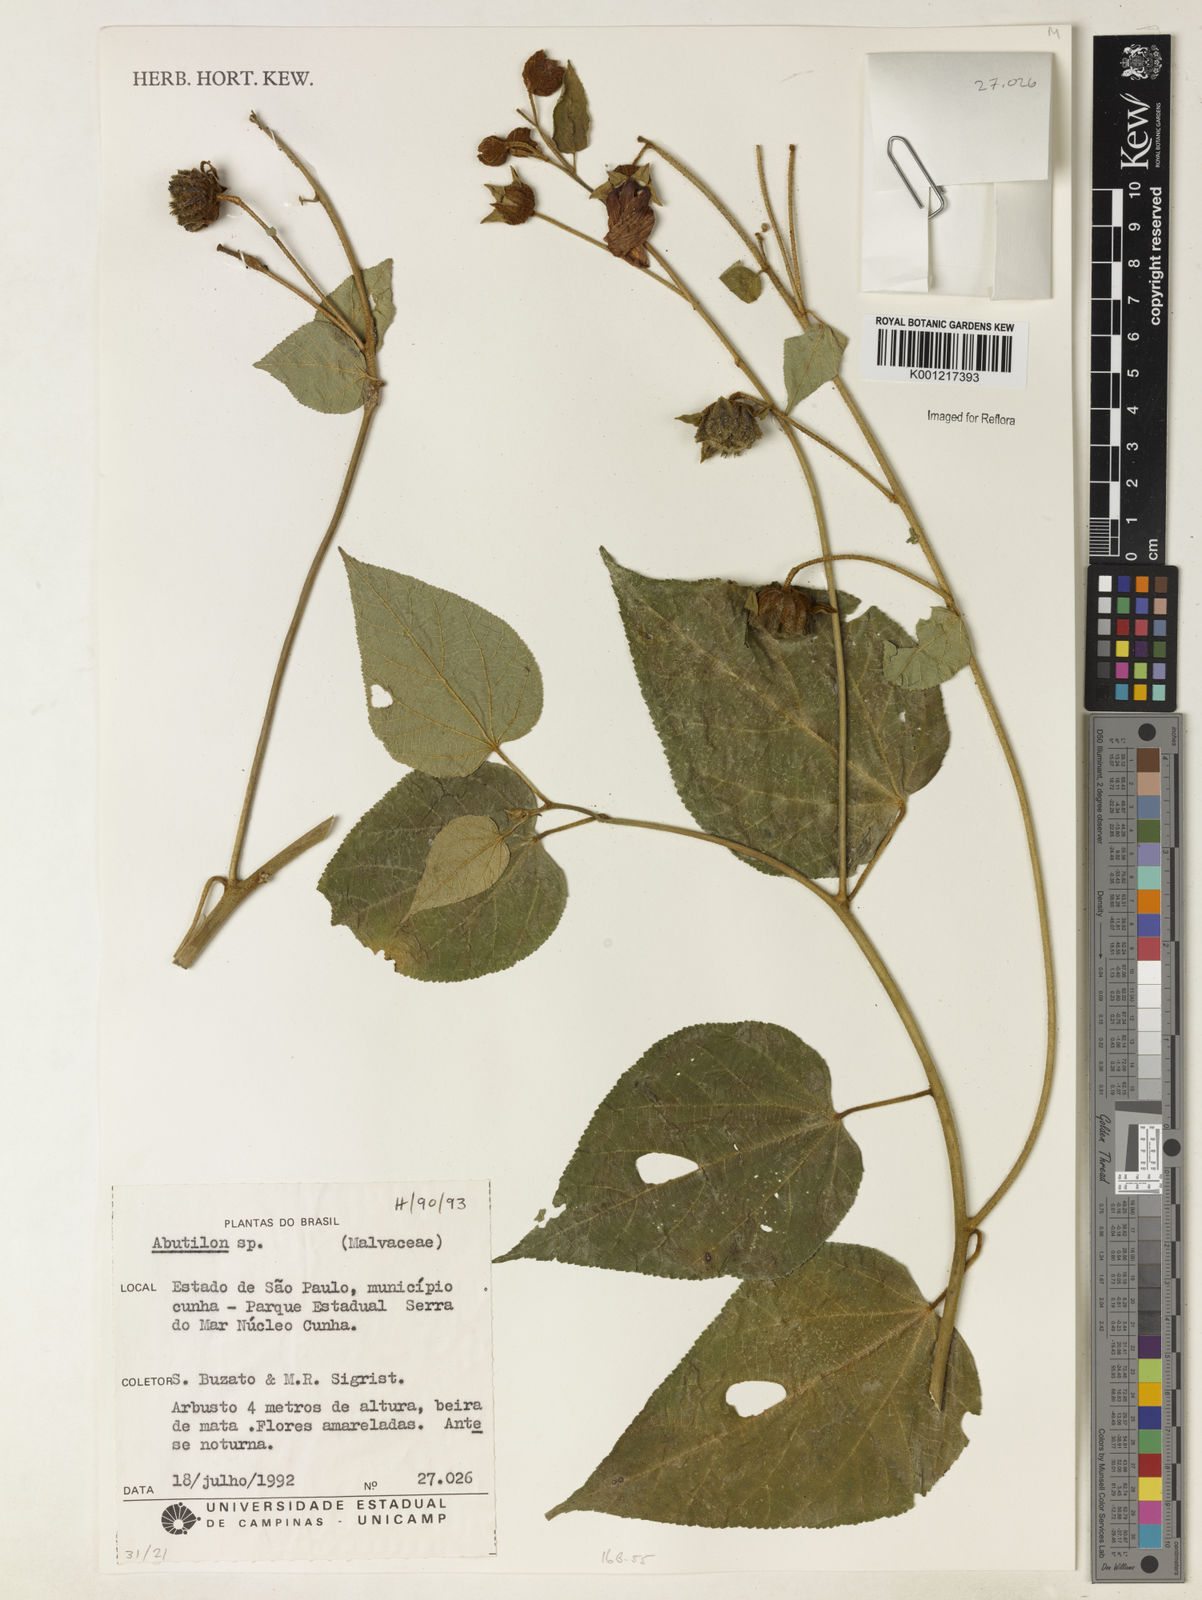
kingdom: Plantae
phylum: Tracheophyta
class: Magnoliopsida
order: Malvales
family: Malvaceae
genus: Abutilon
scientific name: Abutilon
